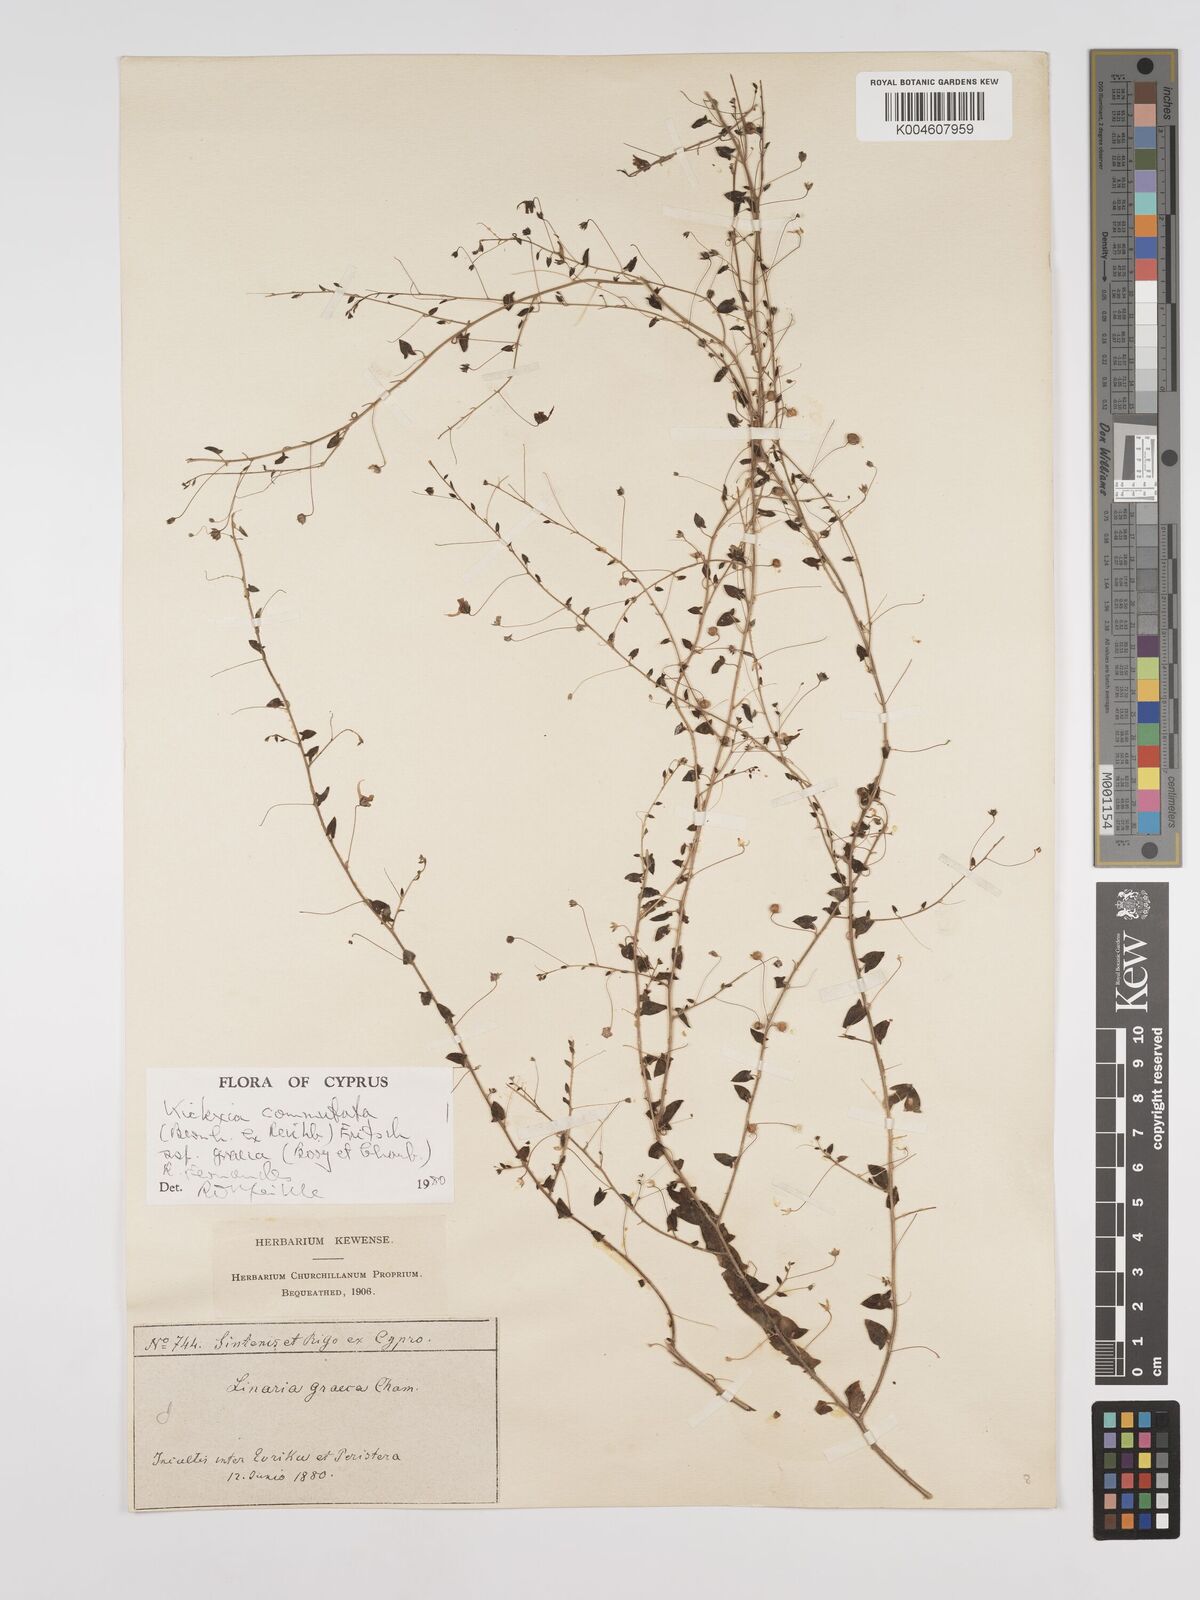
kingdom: Plantae
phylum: Tracheophyta
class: Magnoliopsida
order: Lamiales
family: Plantaginaceae
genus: Kickxia
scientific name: Kickxia commutata
